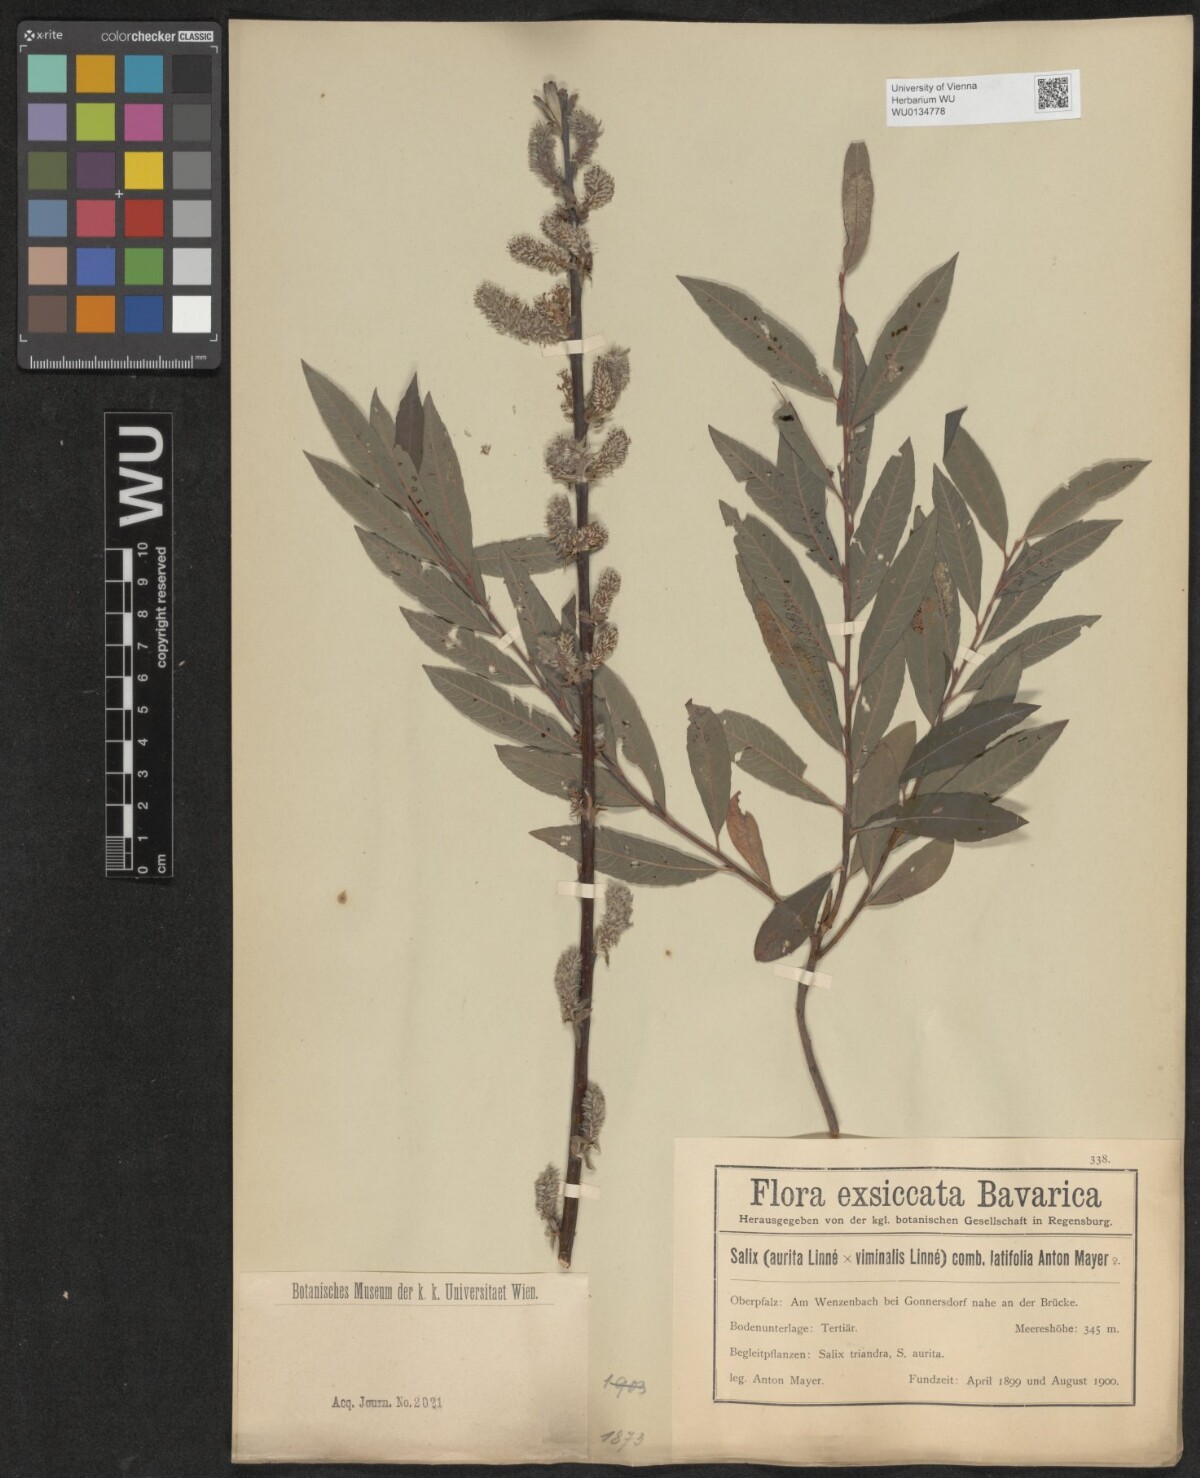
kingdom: Plantae
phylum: Tracheophyta
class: Magnoliopsida
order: Malpighiales
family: Salicaceae
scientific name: Salicaceae
